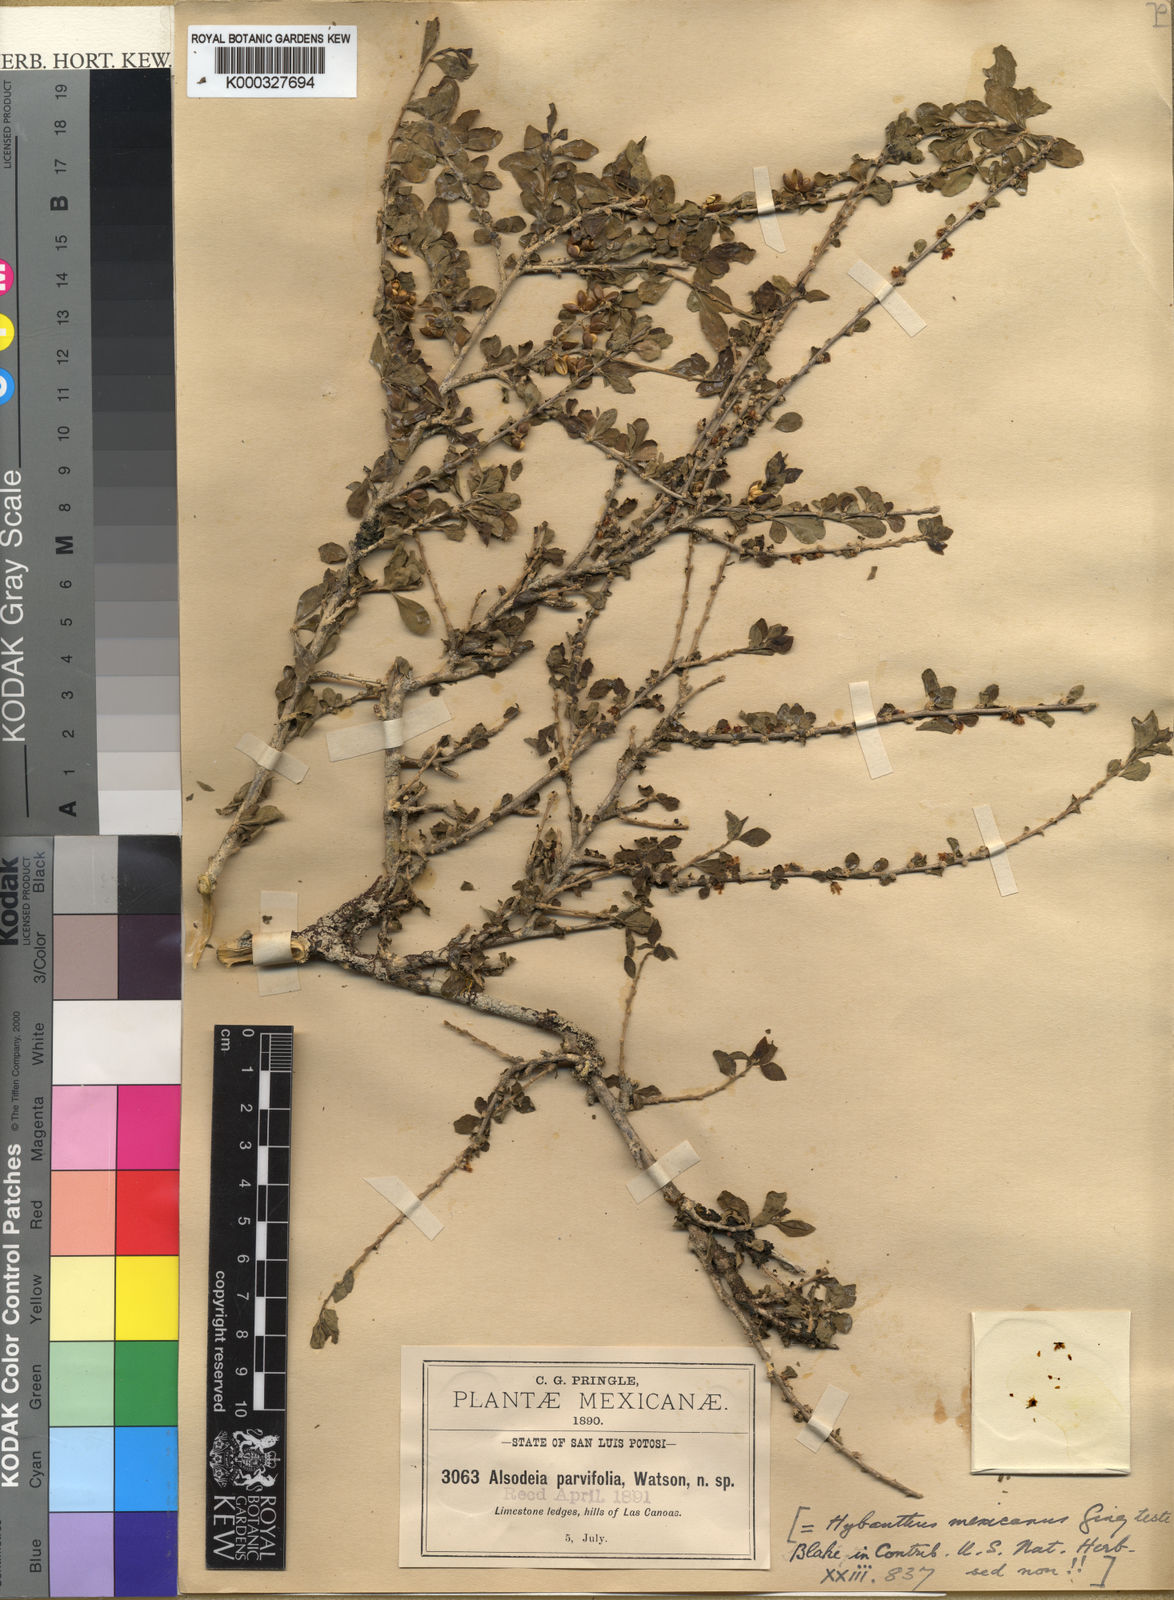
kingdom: Plantae
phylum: Tracheophyta
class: Magnoliopsida
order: Malpighiales
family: Violaceae
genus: Pombalia
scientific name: Pombalia parviflora
